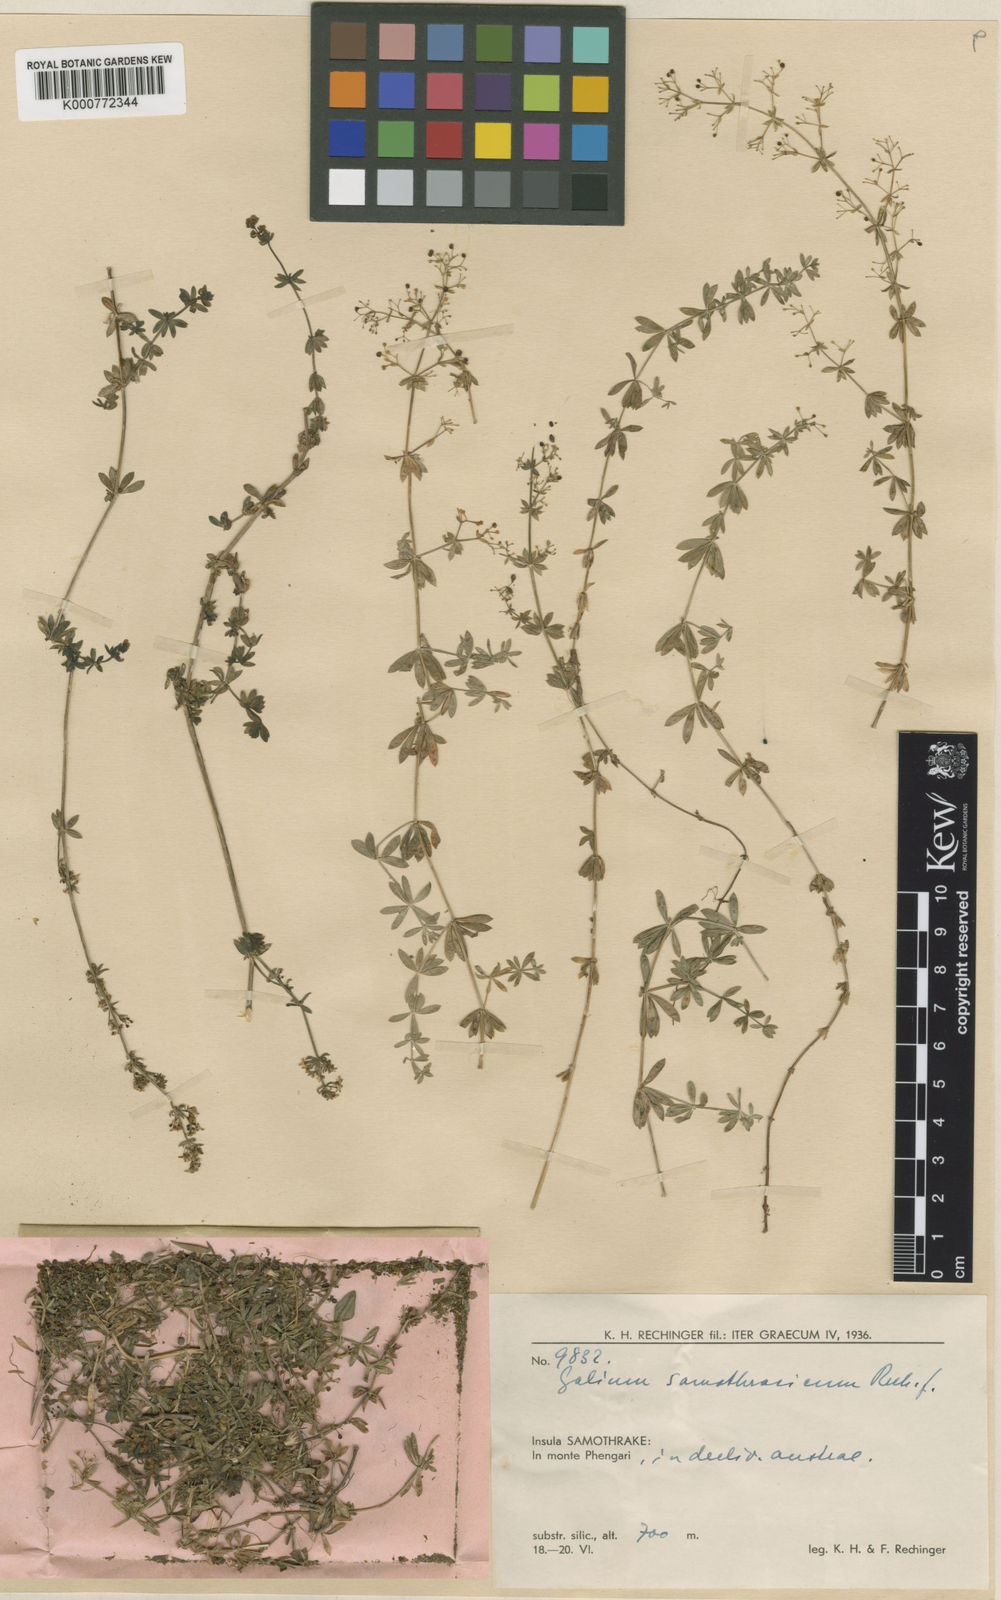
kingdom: Plantae
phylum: Tracheophyta
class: Magnoliopsida
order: Gentianales
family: Rubiaceae
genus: Galium
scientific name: Galium samothracicum
